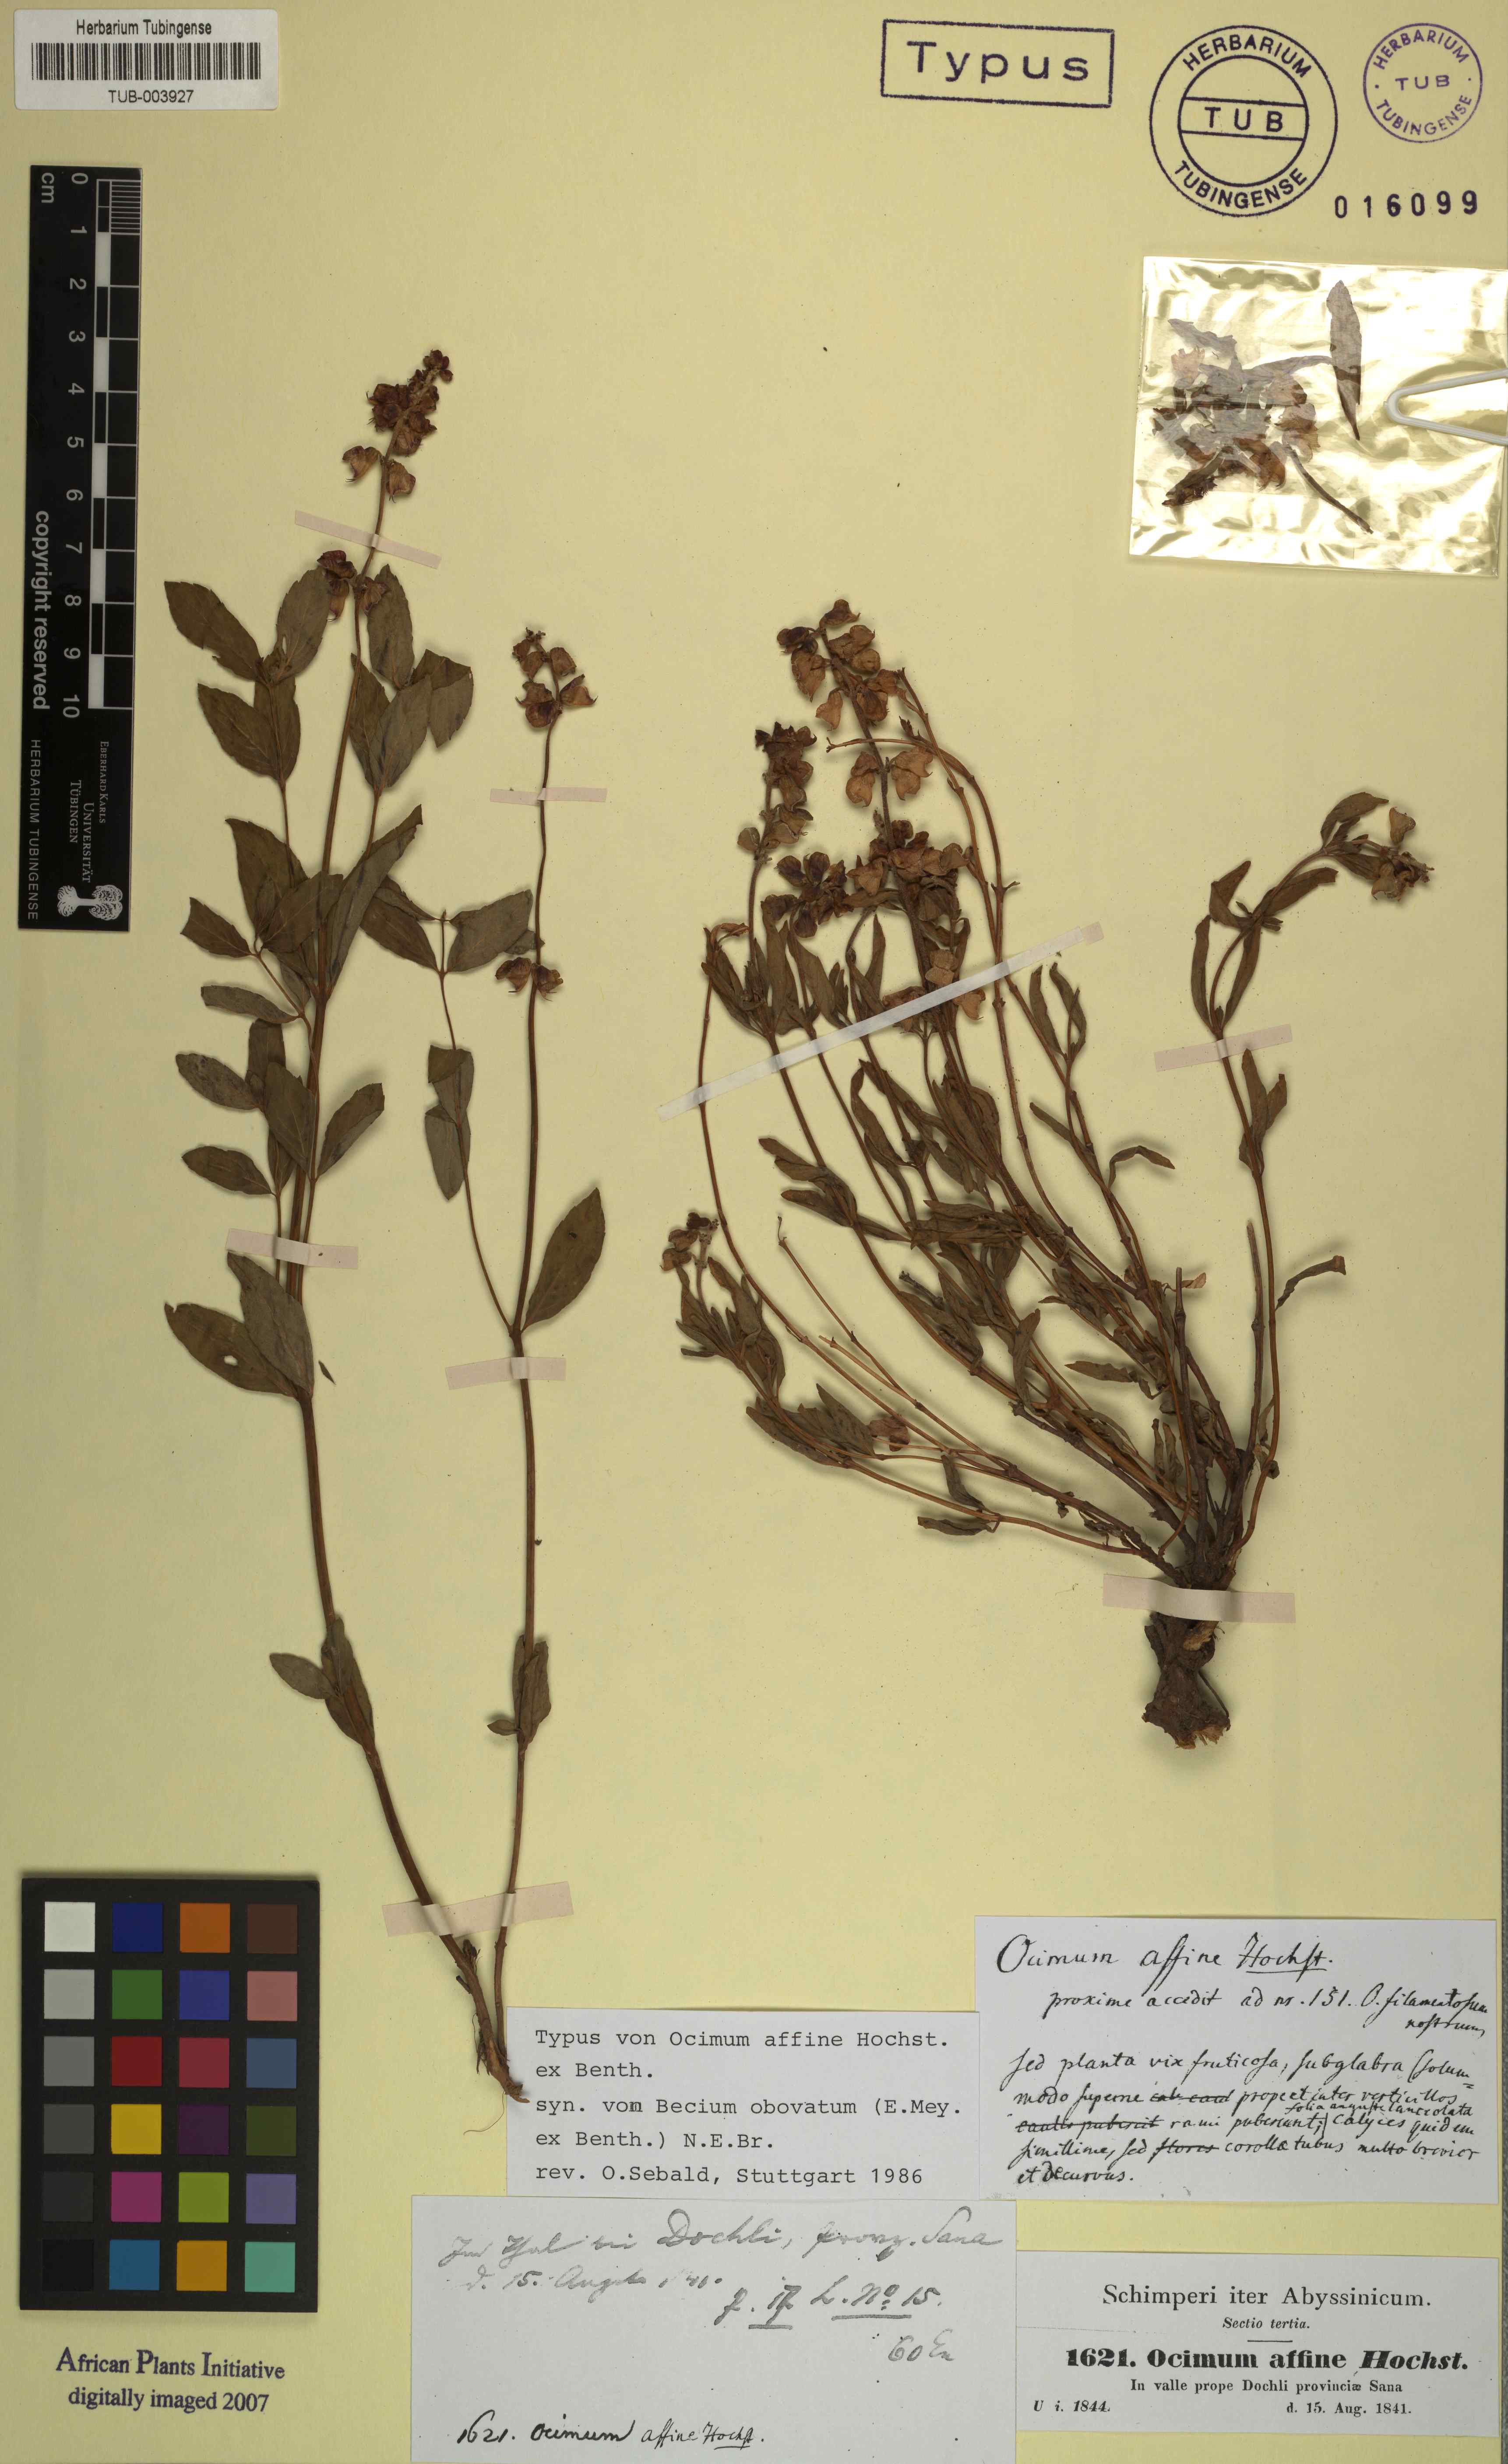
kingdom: Plantae
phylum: Tracheophyta
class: Magnoliopsida
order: Lamiales
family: Lamiaceae
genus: Ocimum
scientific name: Ocimum obovatum
